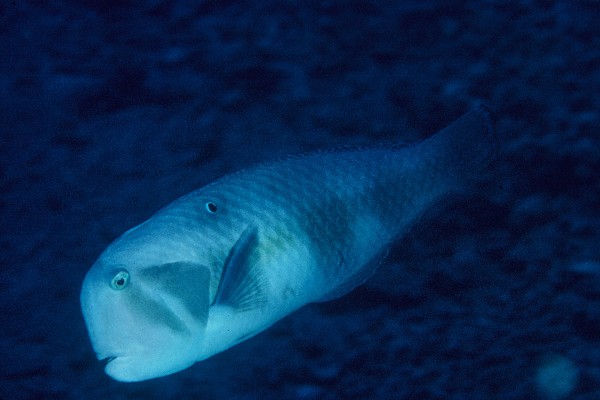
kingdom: Animalia
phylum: Chordata
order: Perciformes
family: Labridae
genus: Iniistius
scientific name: Iniistius pavo
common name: Peacock wrasse
